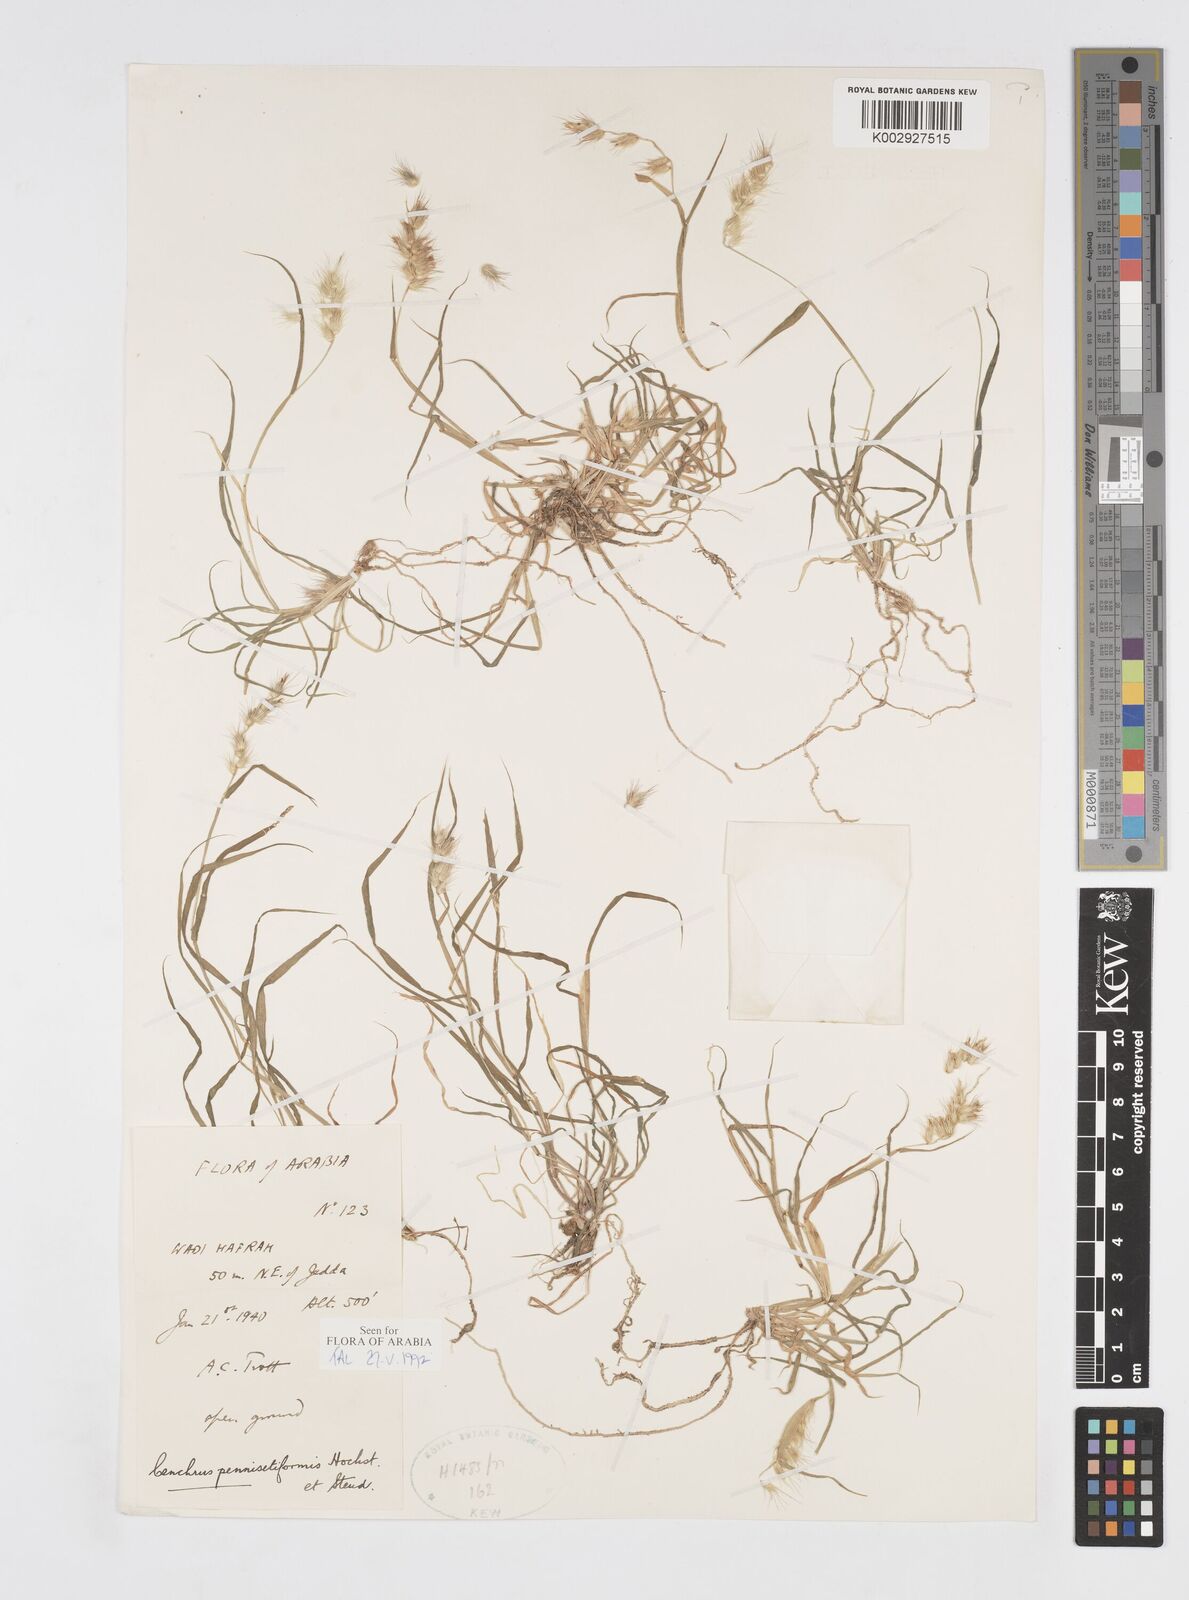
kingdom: Plantae
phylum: Tracheophyta
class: Liliopsida
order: Poales
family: Poaceae
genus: Cenchrus
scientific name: Cenchrus pennisetiformis
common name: Cloncurry
